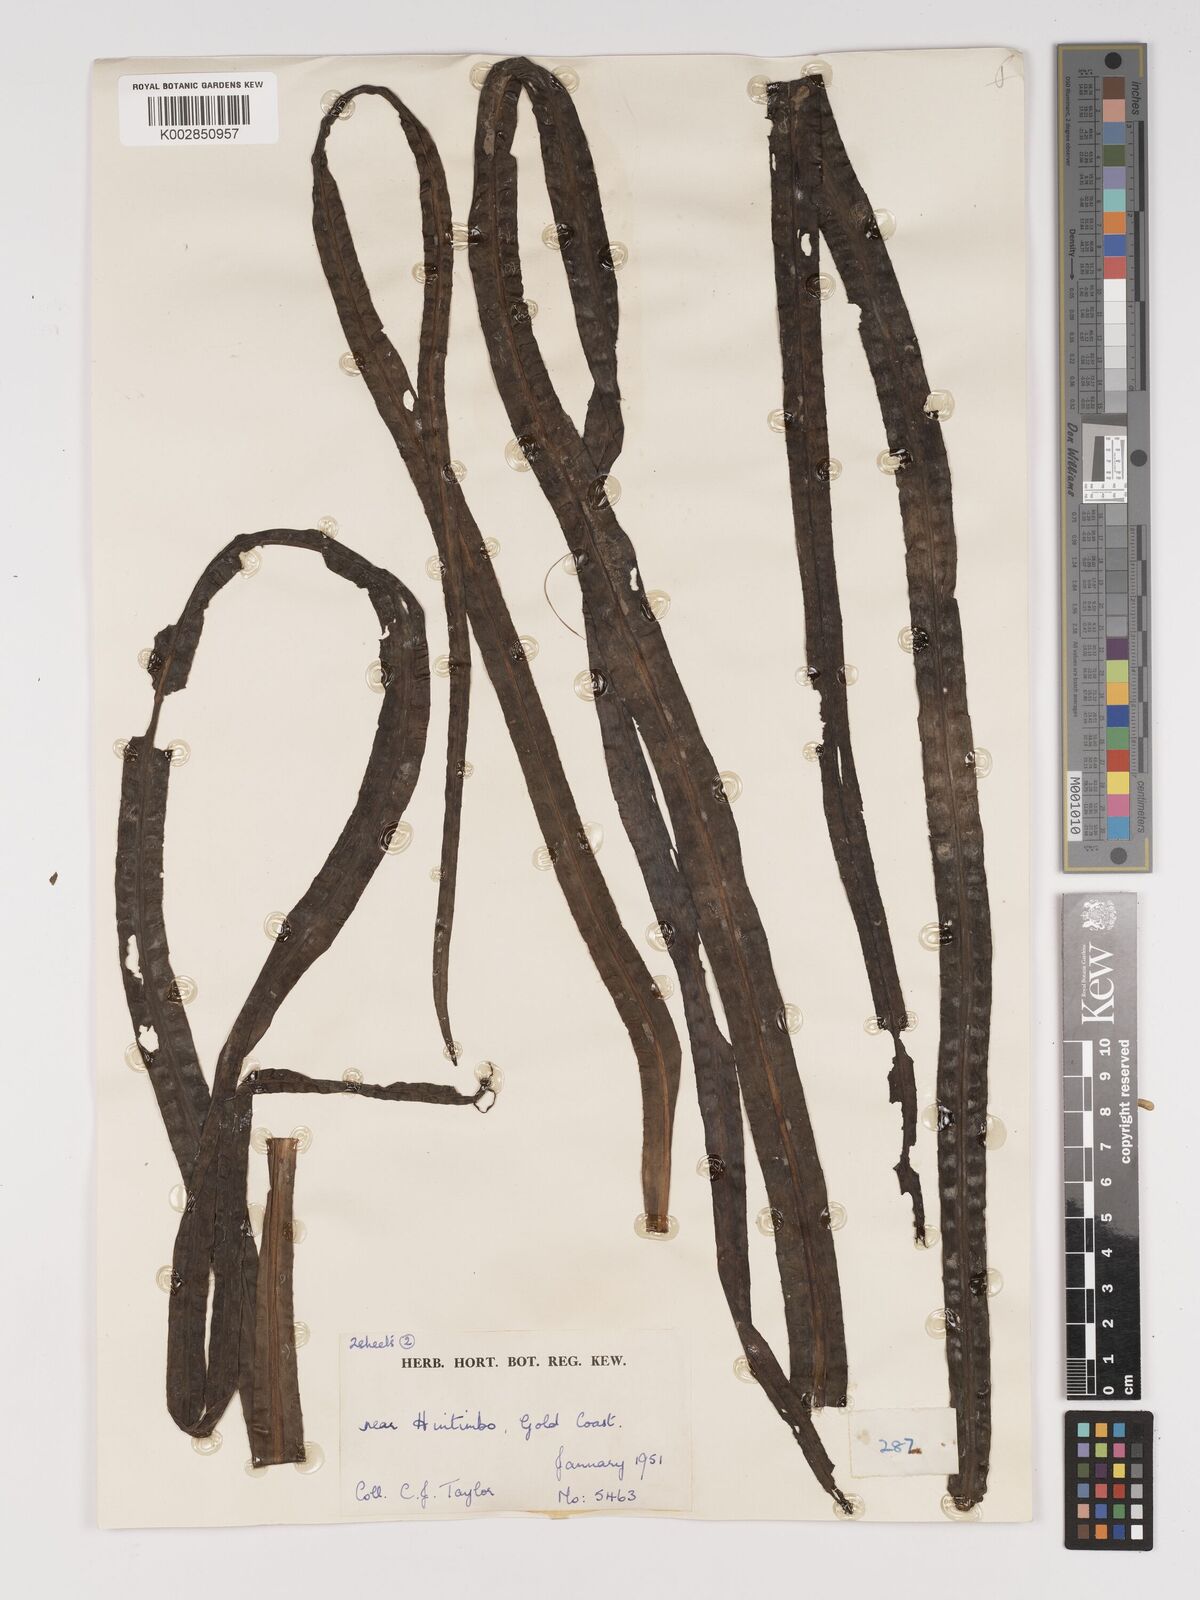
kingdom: Plantae
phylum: Tracheophyta
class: Liliopsida
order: Asparagales
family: Amaryllidaceae
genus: Crinum
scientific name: Crinum moorei
